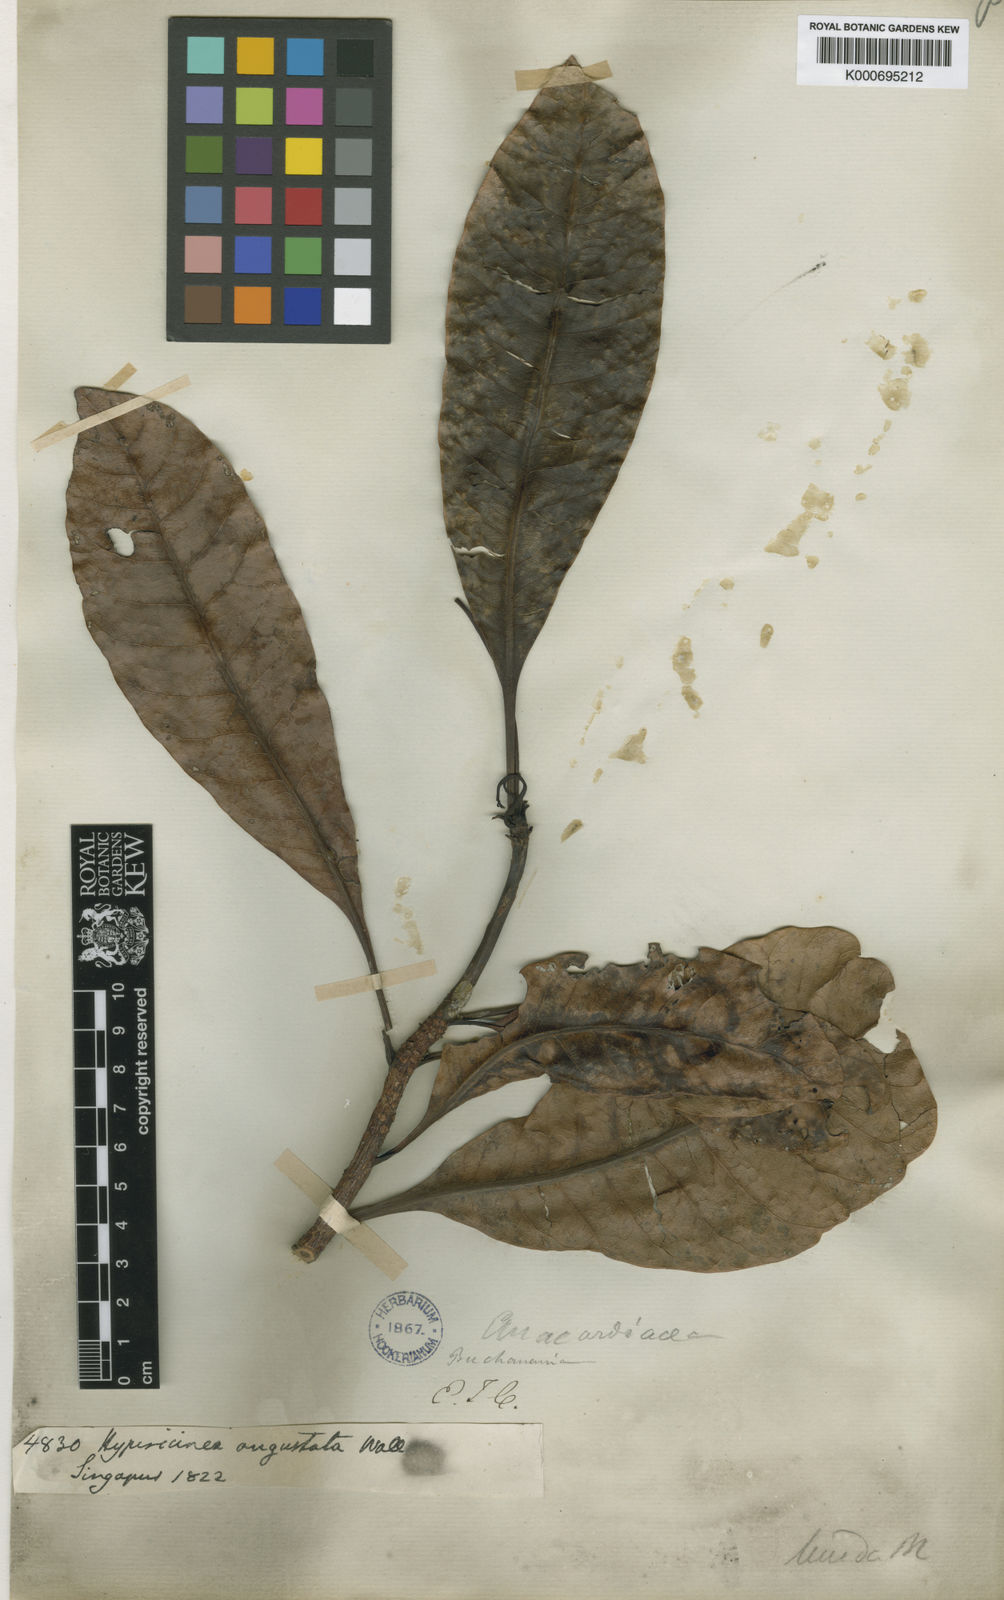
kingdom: Plantae
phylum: Tracheophyta
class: Magnoliopsida
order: Sapindales
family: Anacardiaceae
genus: Buchanania
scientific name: Buchanania sessifolia
